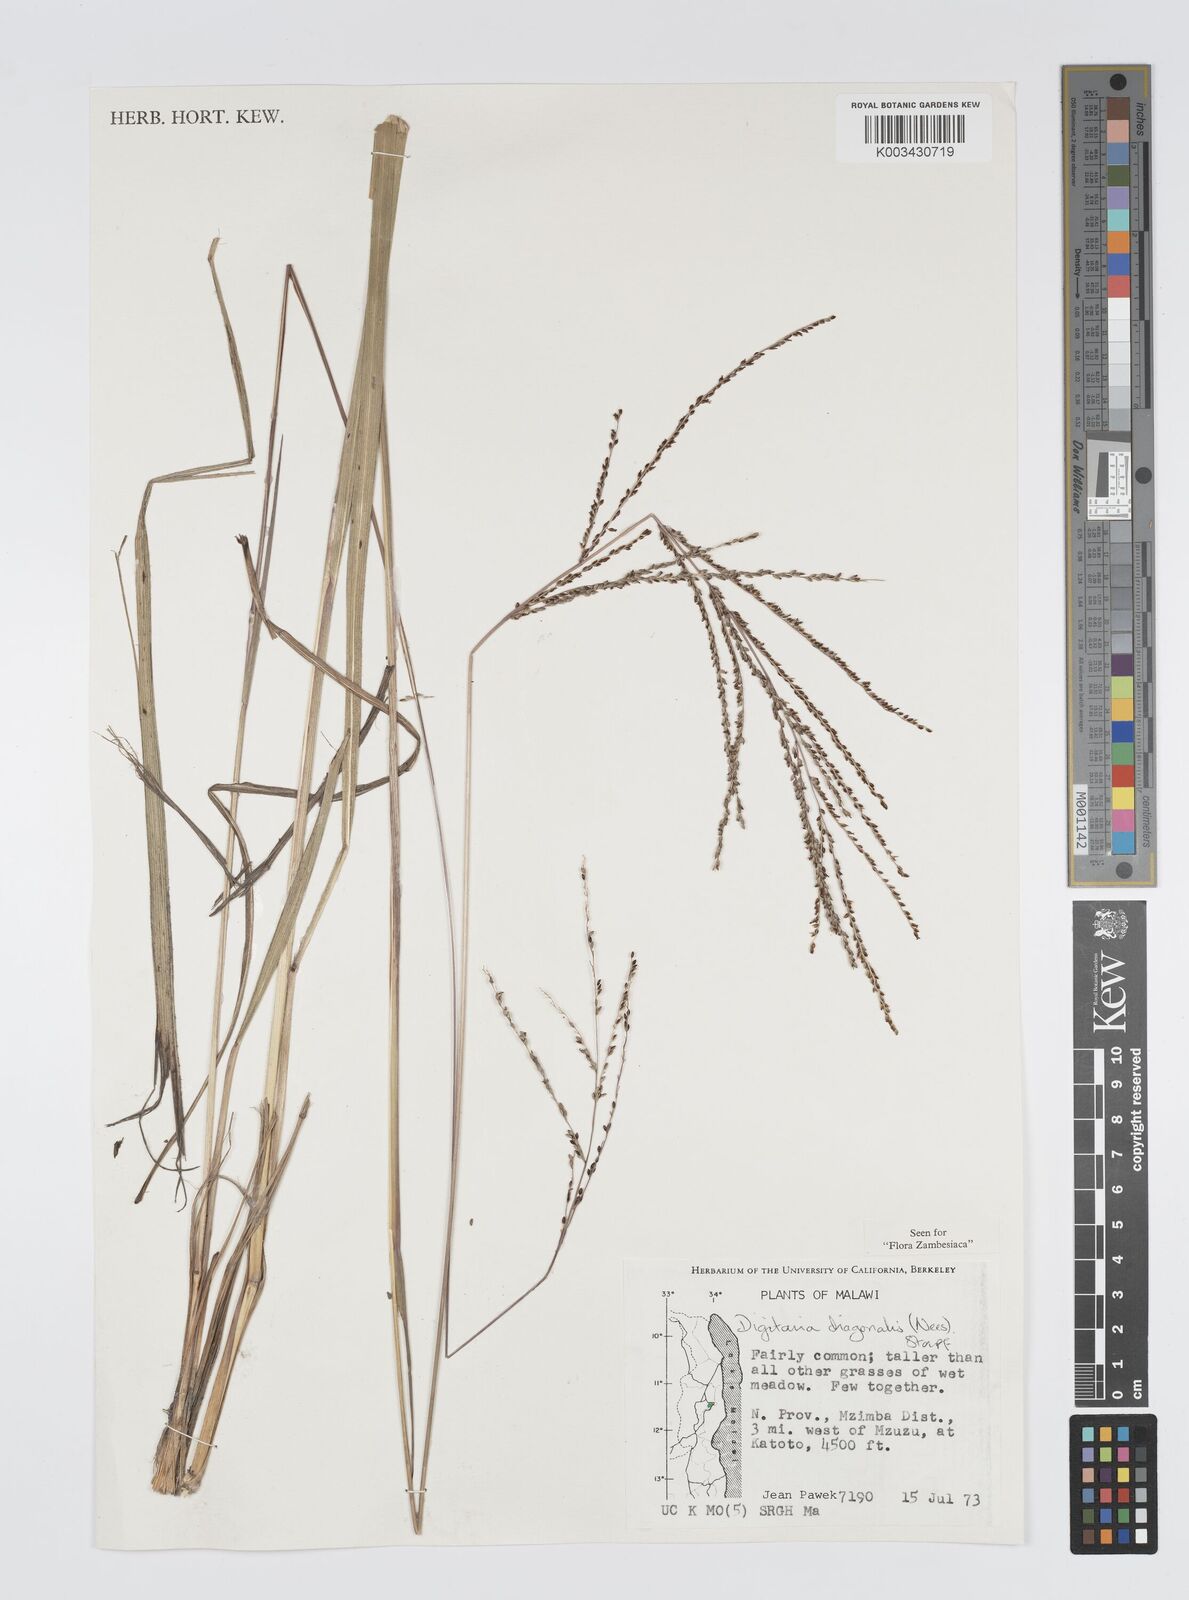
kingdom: Plantae
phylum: Tracheophyta
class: Liliopsida
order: Poales
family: Poaceae
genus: Digitaria
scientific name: Digitaria diagonalis
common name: Brown-seed finger grass
